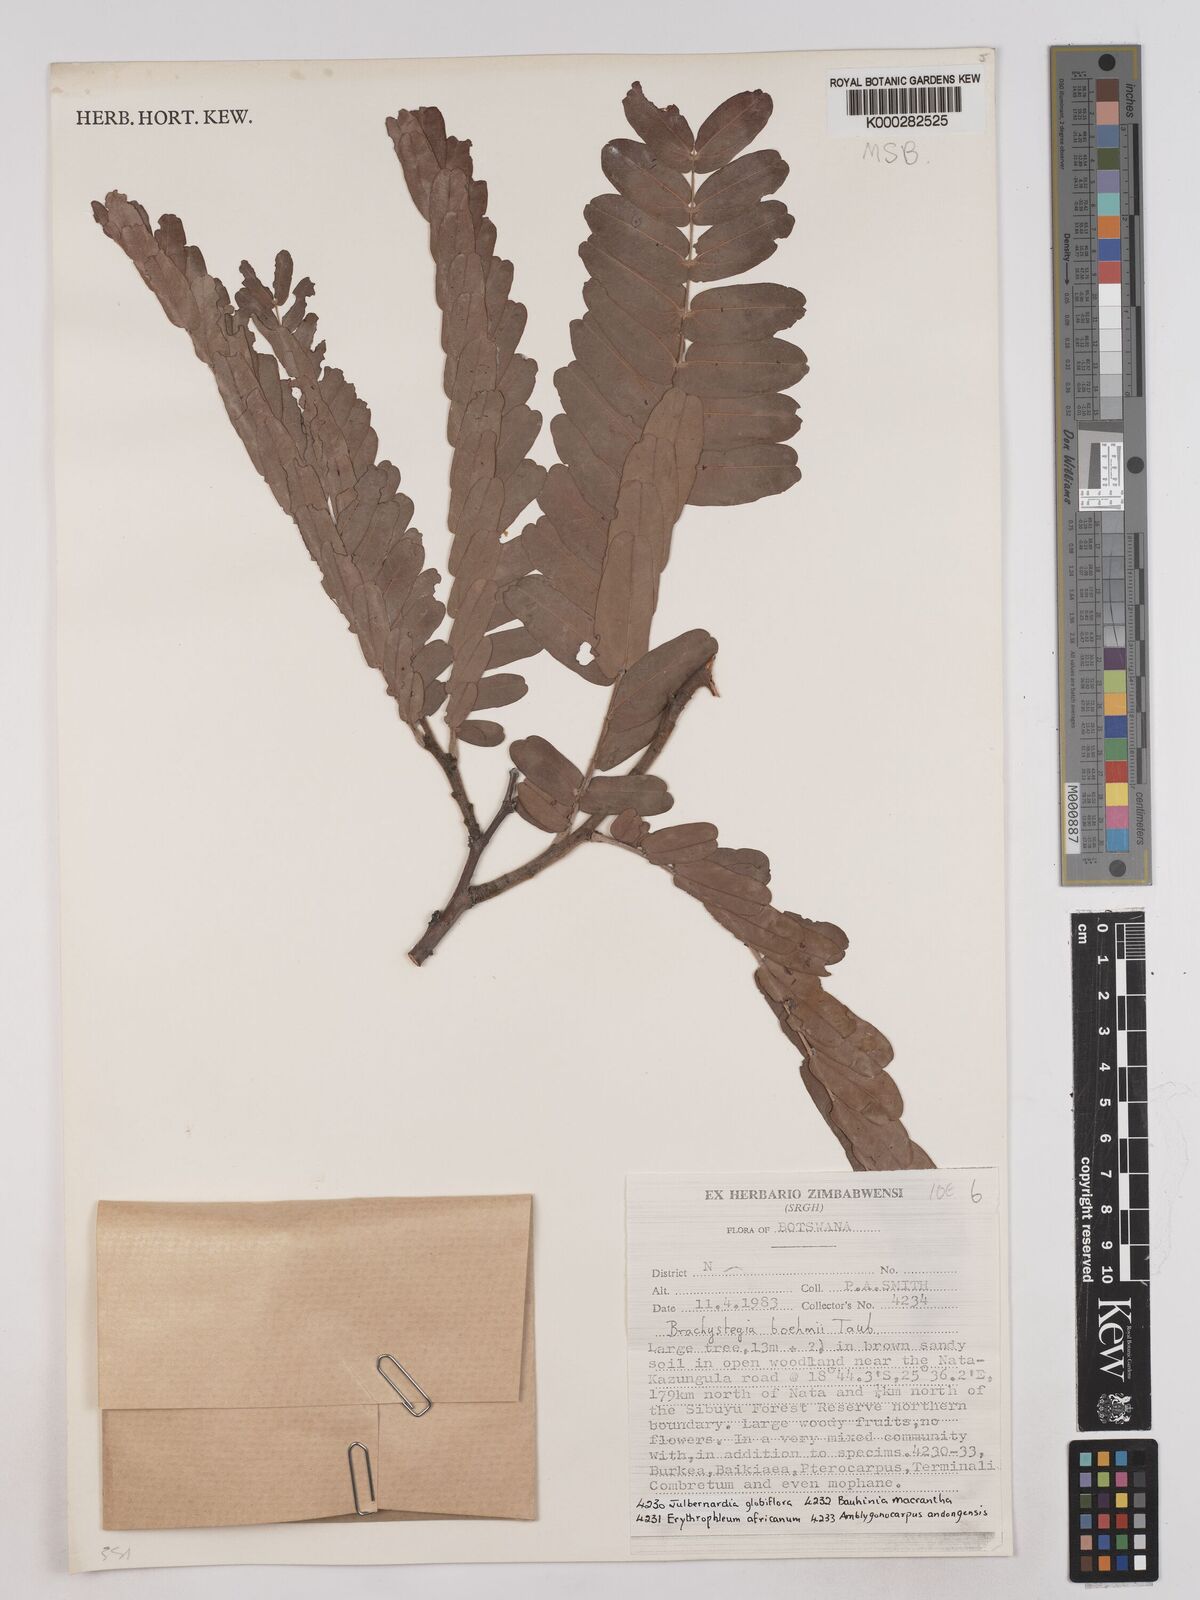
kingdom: Plantae
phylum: Tracheophyta
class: Magnoliopsida
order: Fabales
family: Fabaceae
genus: Brachystegia
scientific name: Brachystegia boehmii
